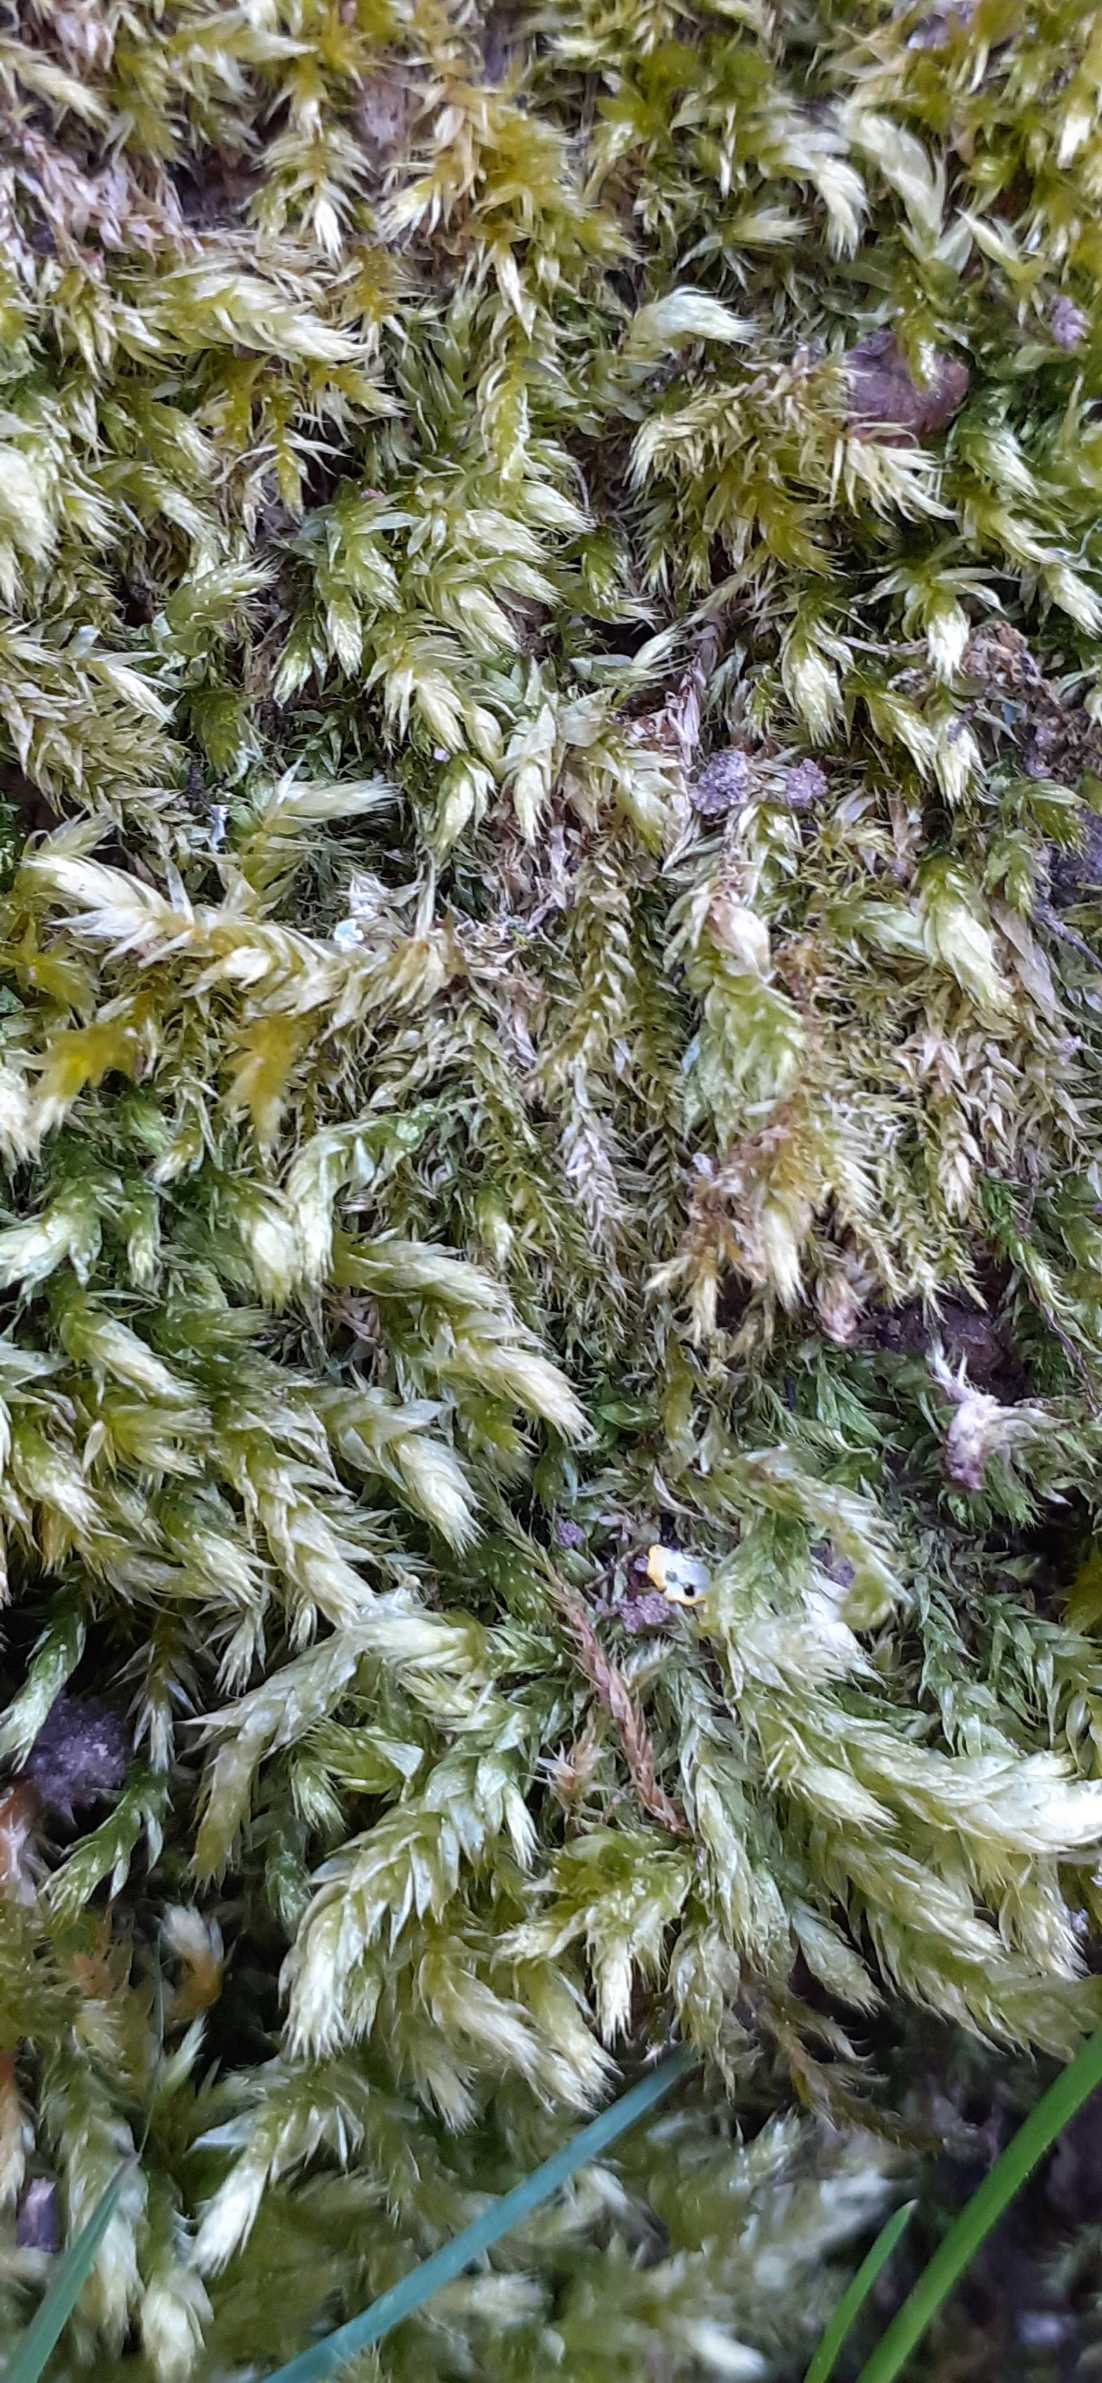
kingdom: Plantae
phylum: Bryophyta
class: Bryopsida
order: Hypnales
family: Brachytheciaceae
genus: Brachythecium
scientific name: Brachythecium rutabulum
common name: Almindelig kortkapsel
